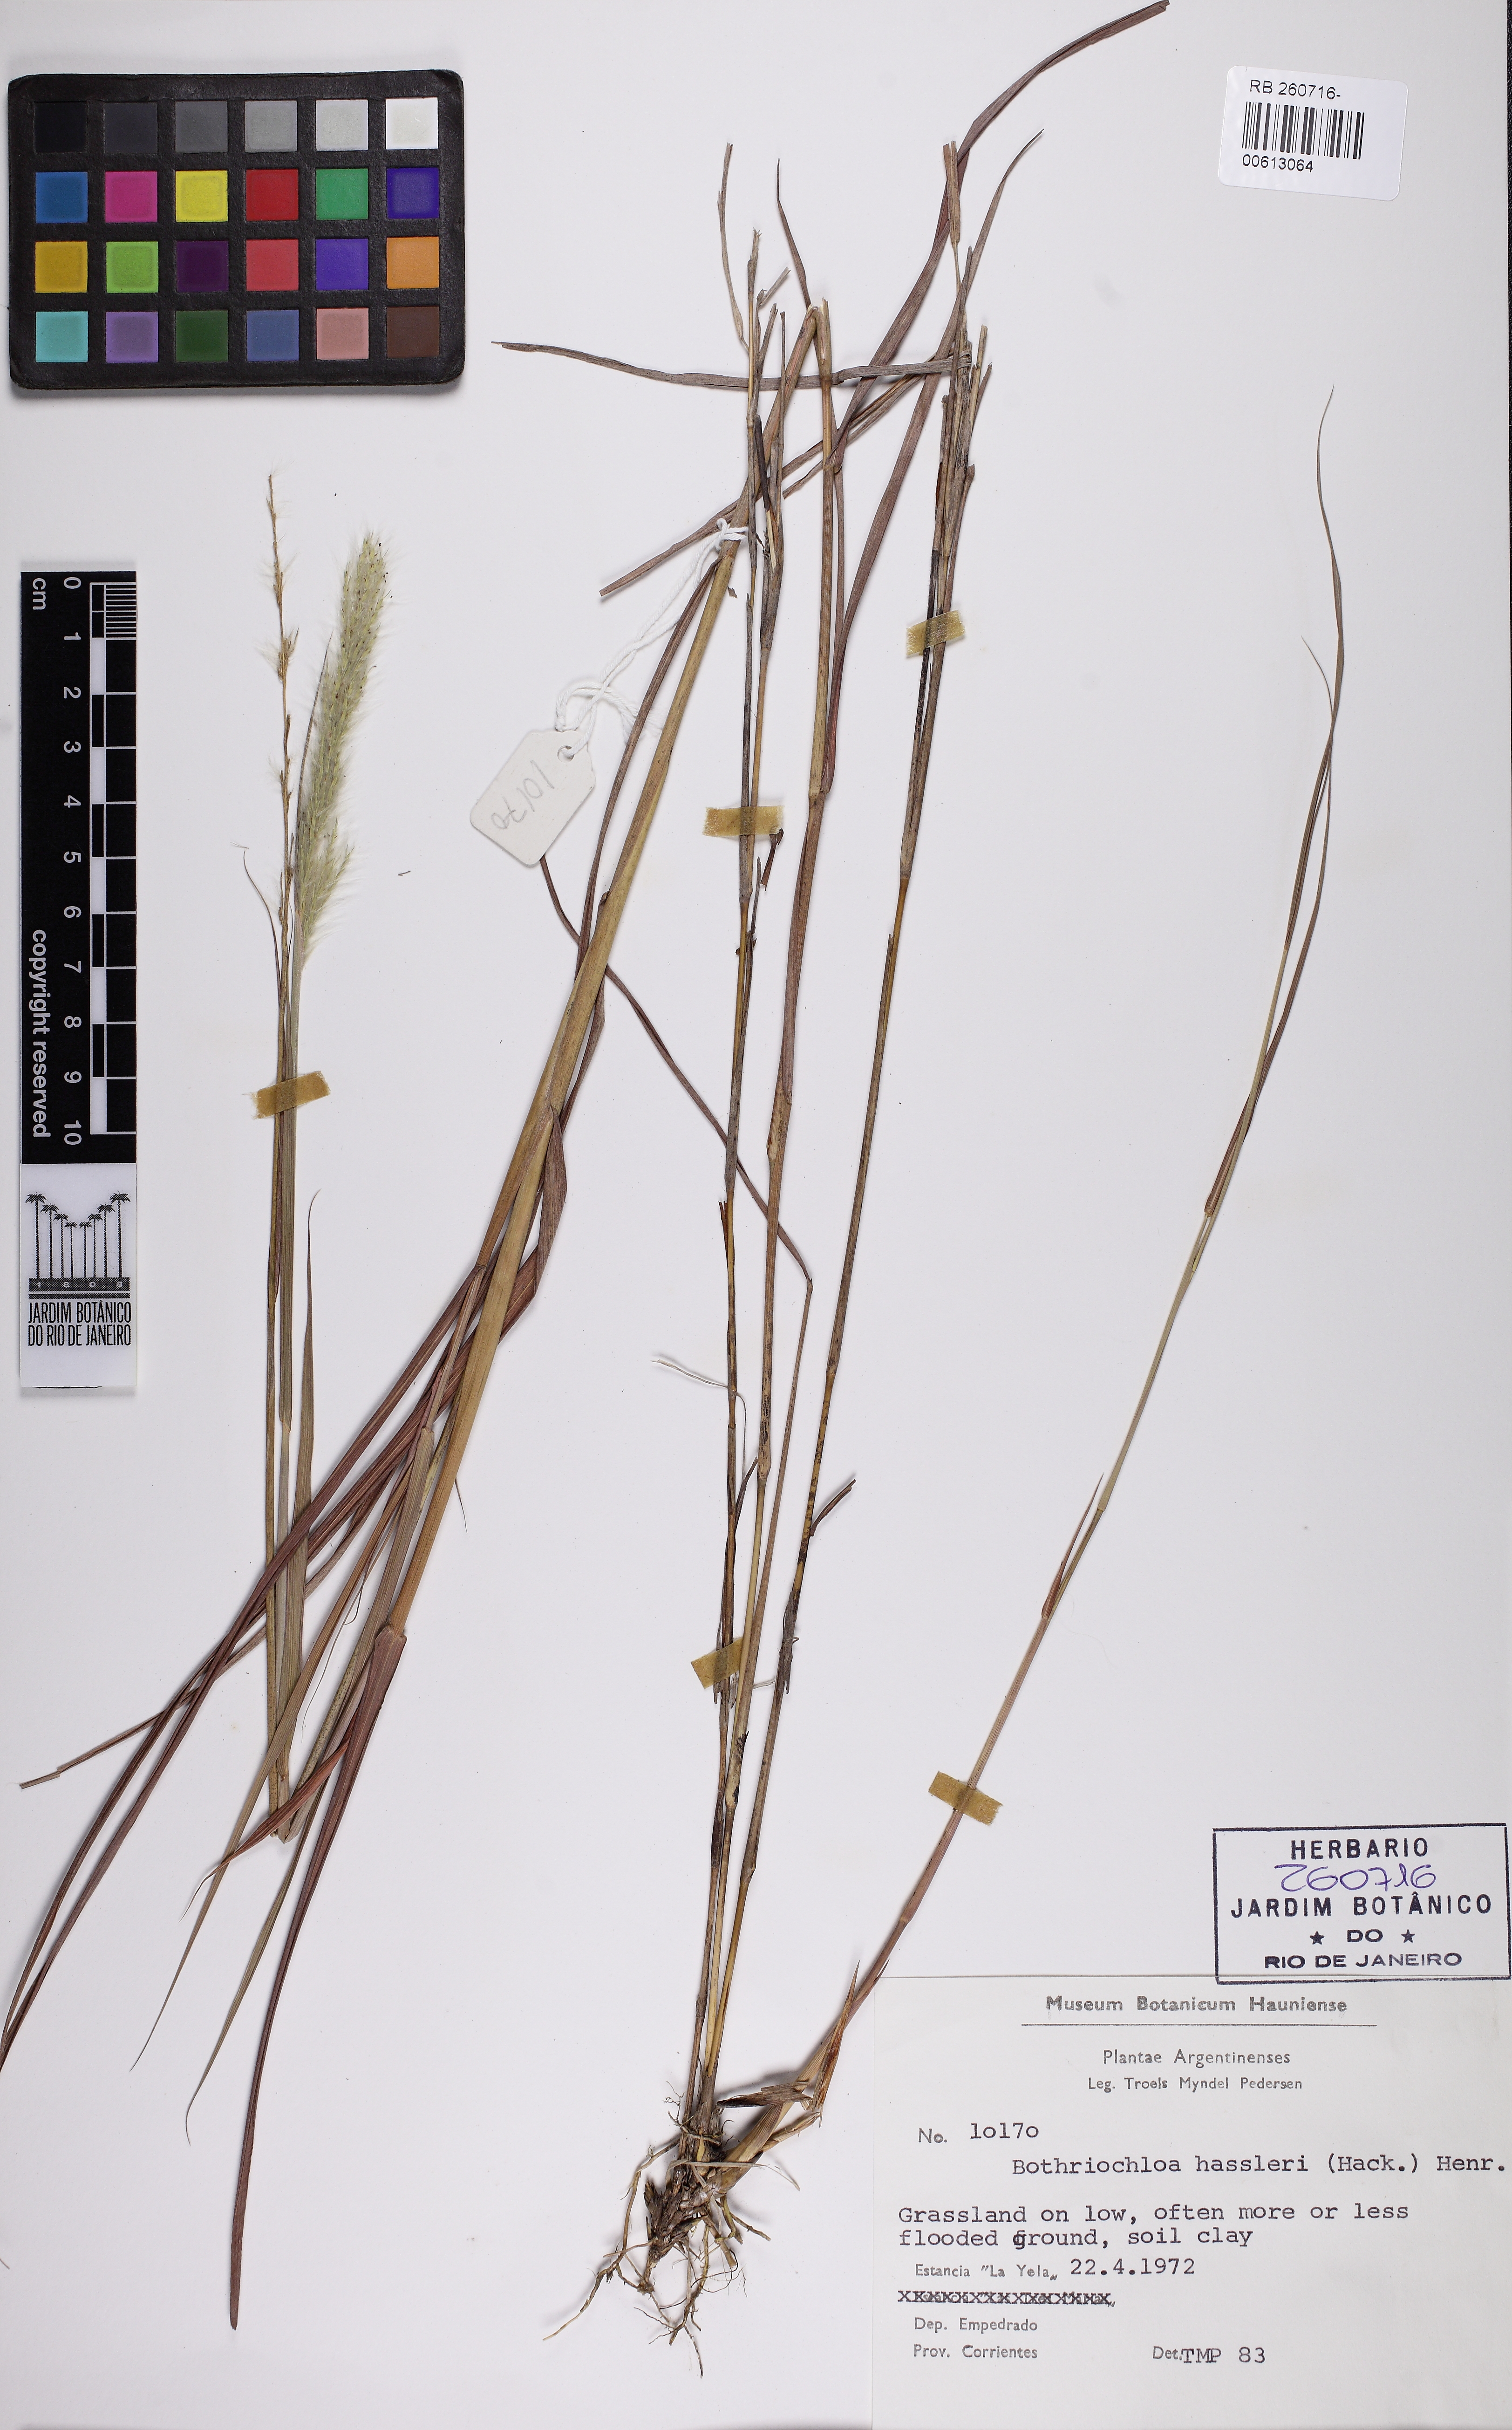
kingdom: Plantae
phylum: Tracheophyta
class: Liliopsida
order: Poales
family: Poaceae
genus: Bothriochloa
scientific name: Bothriochloa exaristata
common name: Awnless bluestem
